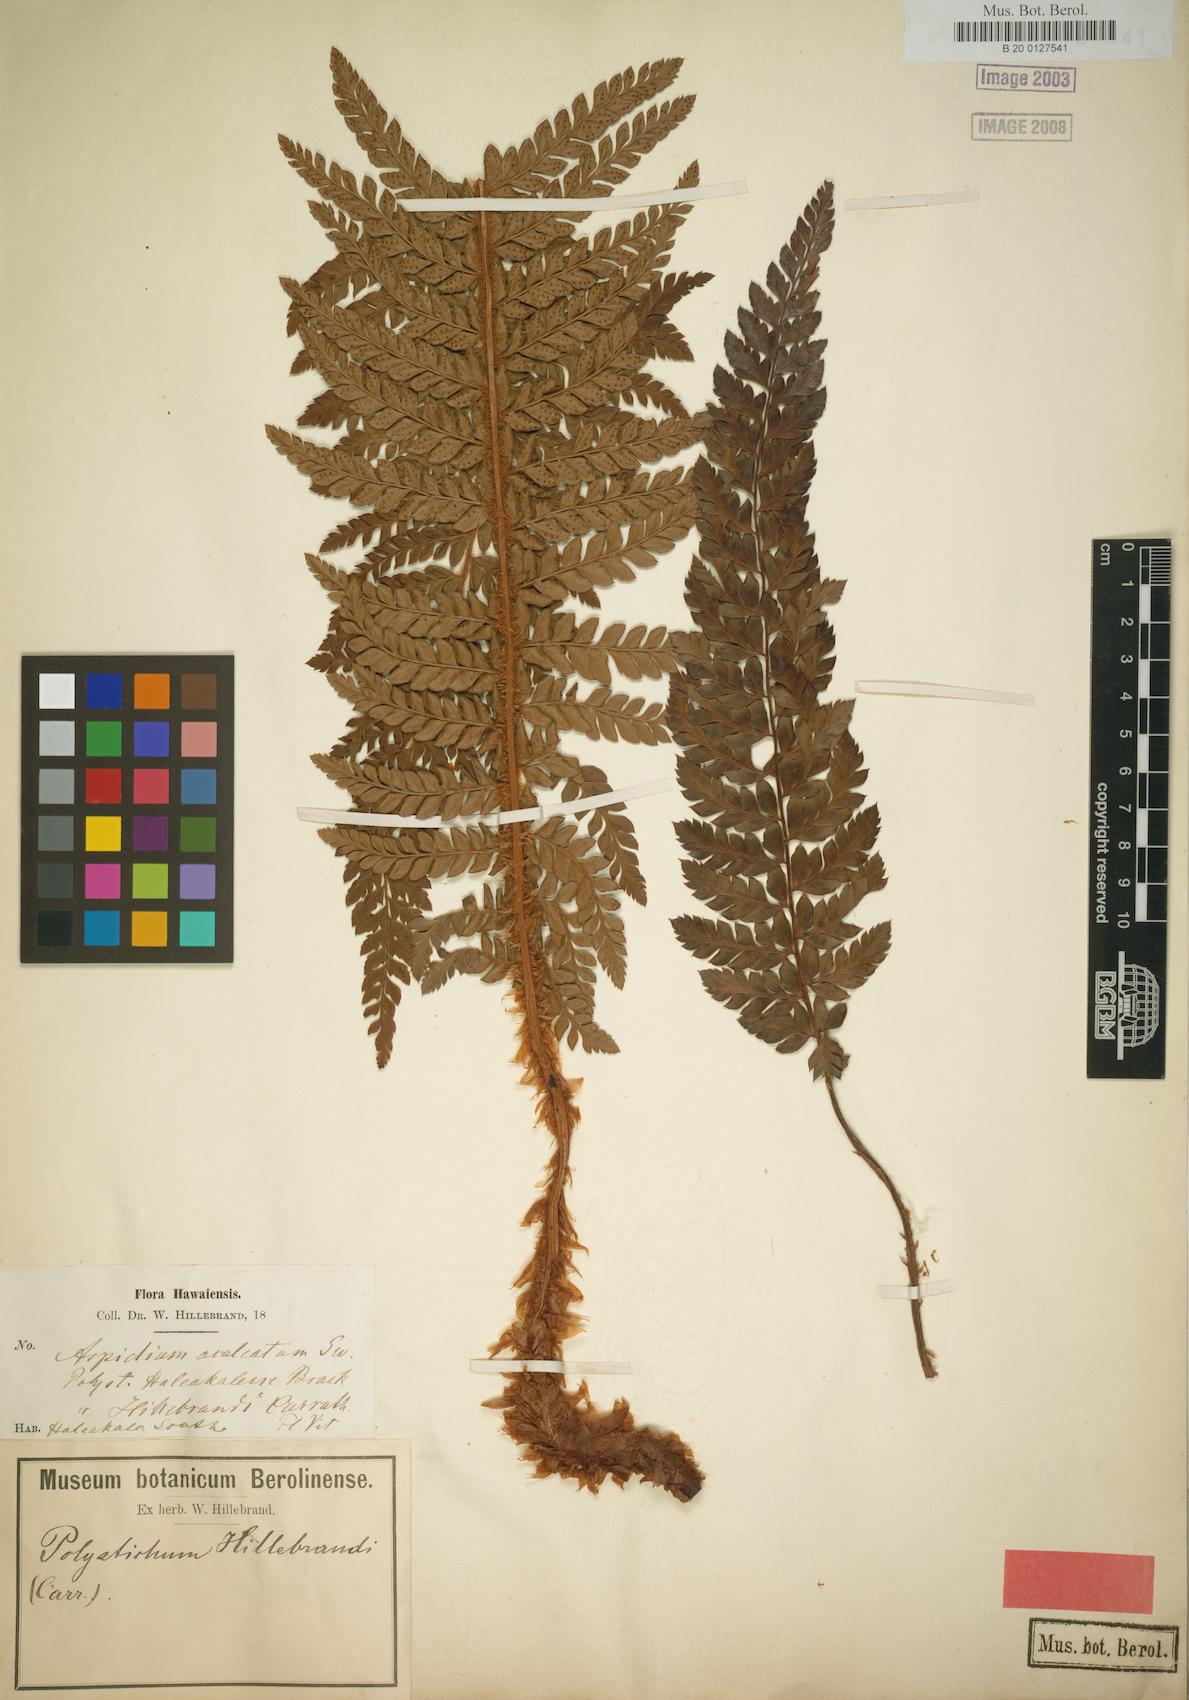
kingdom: Plantae
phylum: Tracheophyta
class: Polypodiopsida
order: Polypodiales
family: Dryopteridaceae
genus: Polystichum
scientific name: Polystichum hillebrandii
